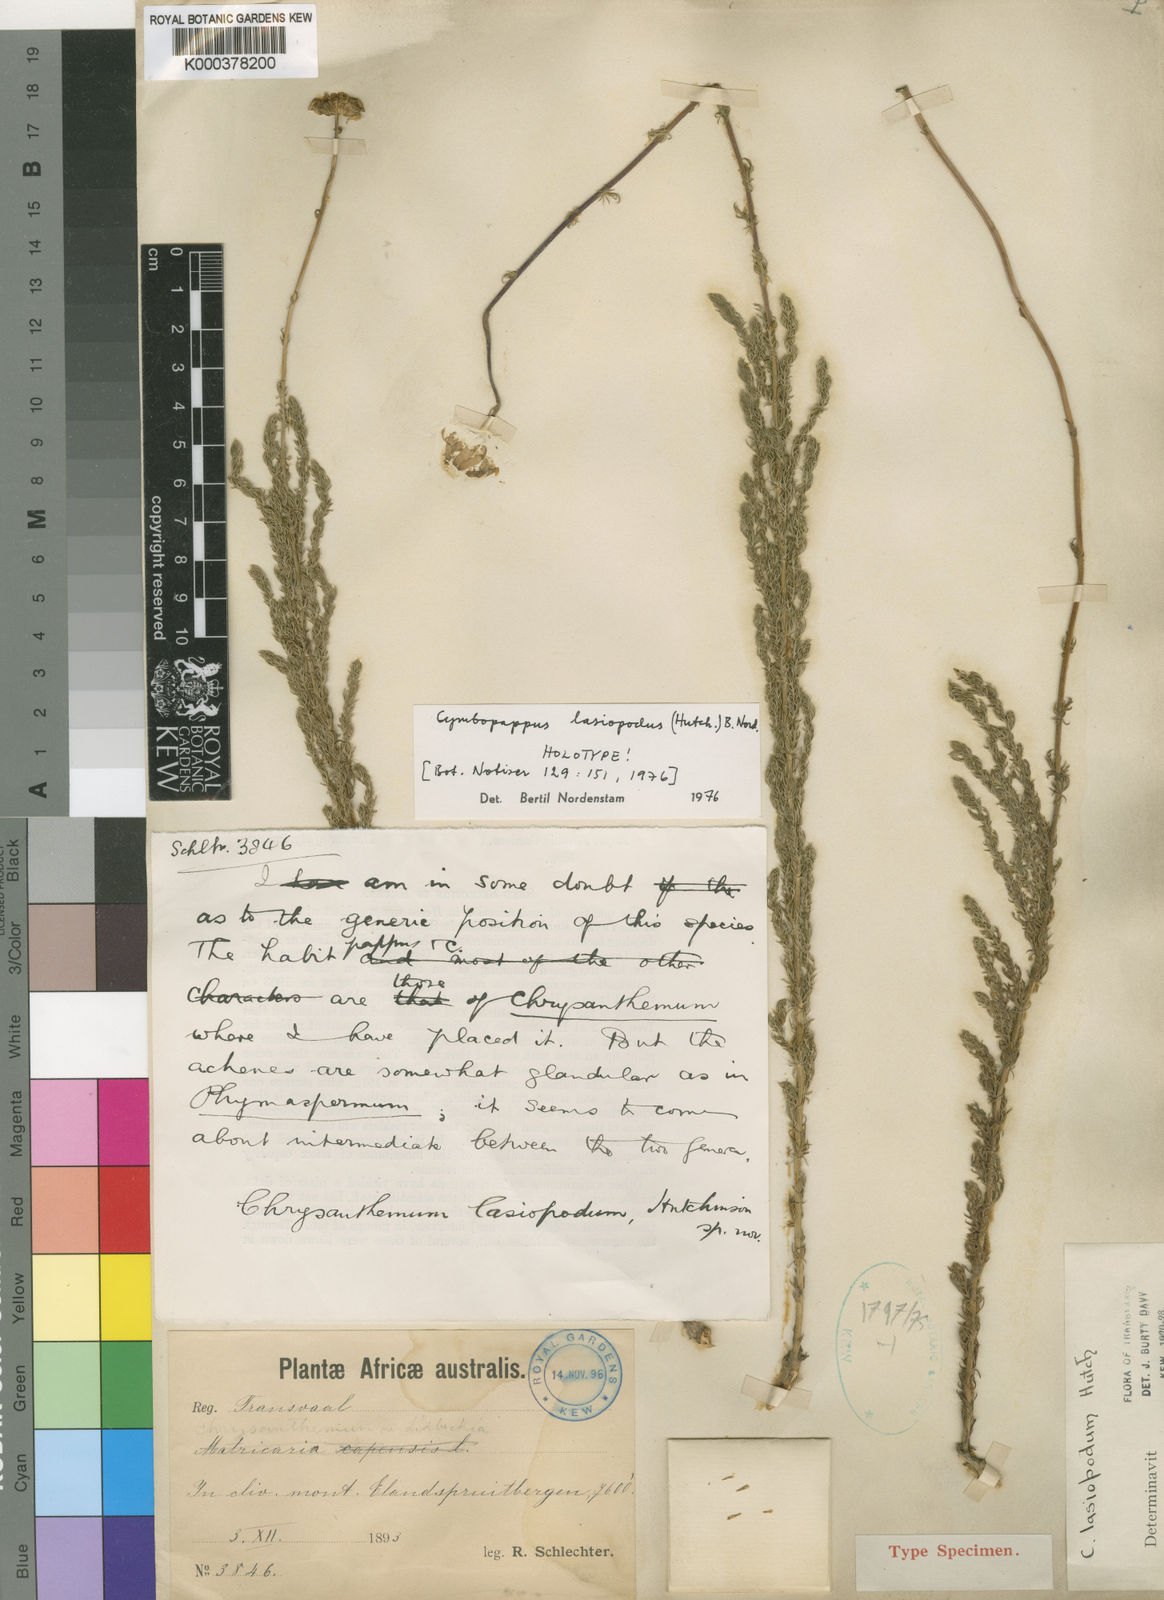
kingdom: Plantae
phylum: Tracheophyta
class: Magnoliopsida
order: Asterales
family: Asteraceae
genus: Cymbopappus
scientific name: Cymbopappus piliferus
